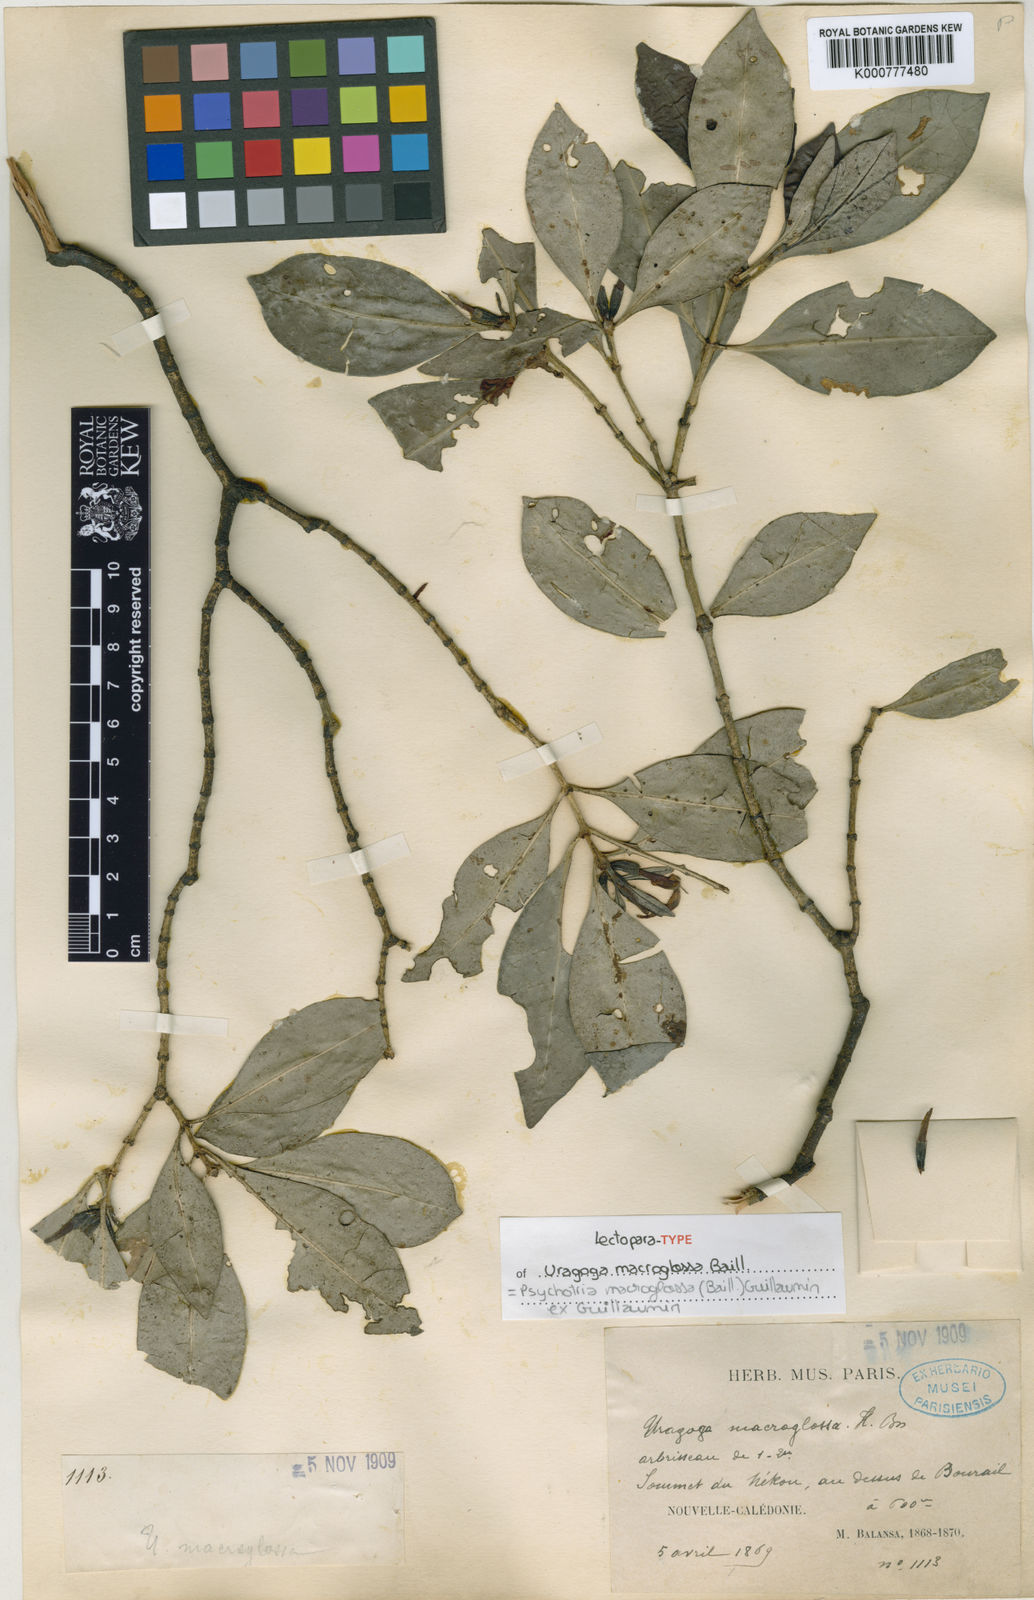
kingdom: Plantae
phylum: Tracheophyta
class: Magnoliopsida
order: Gentianales
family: Rubiaceae
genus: Psychotria
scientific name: Psychotria macroglossa
